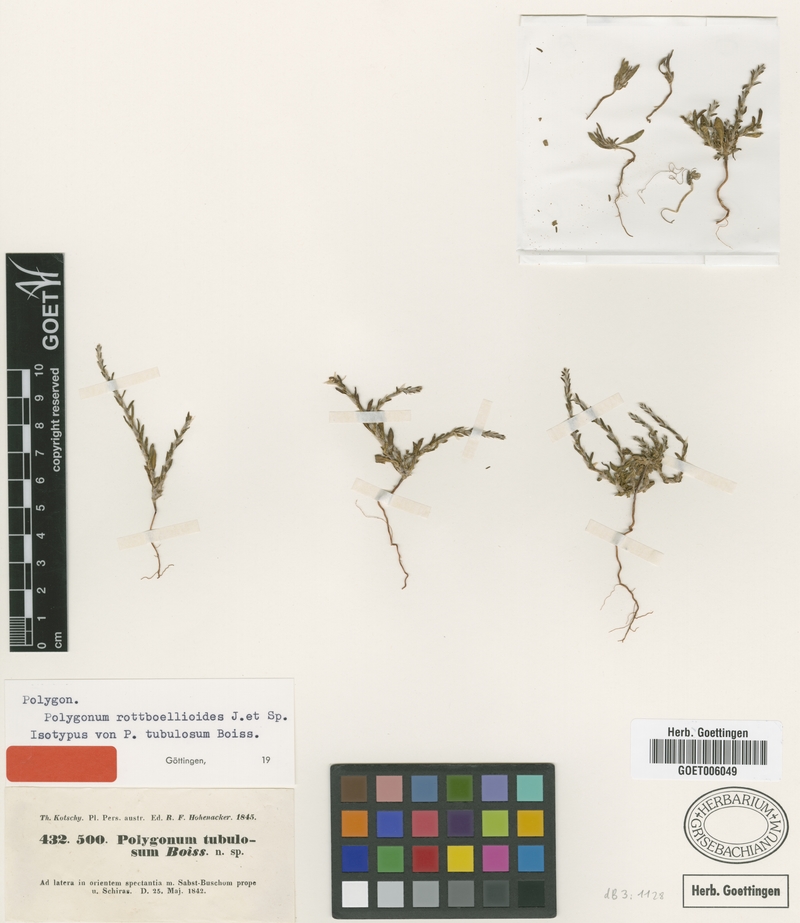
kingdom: Plantae
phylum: Tracheophyta
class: Magnoliopsida
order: Caryophyllales
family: Polygonaceae
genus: Polygonum
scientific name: Polygonum rottboellioides
